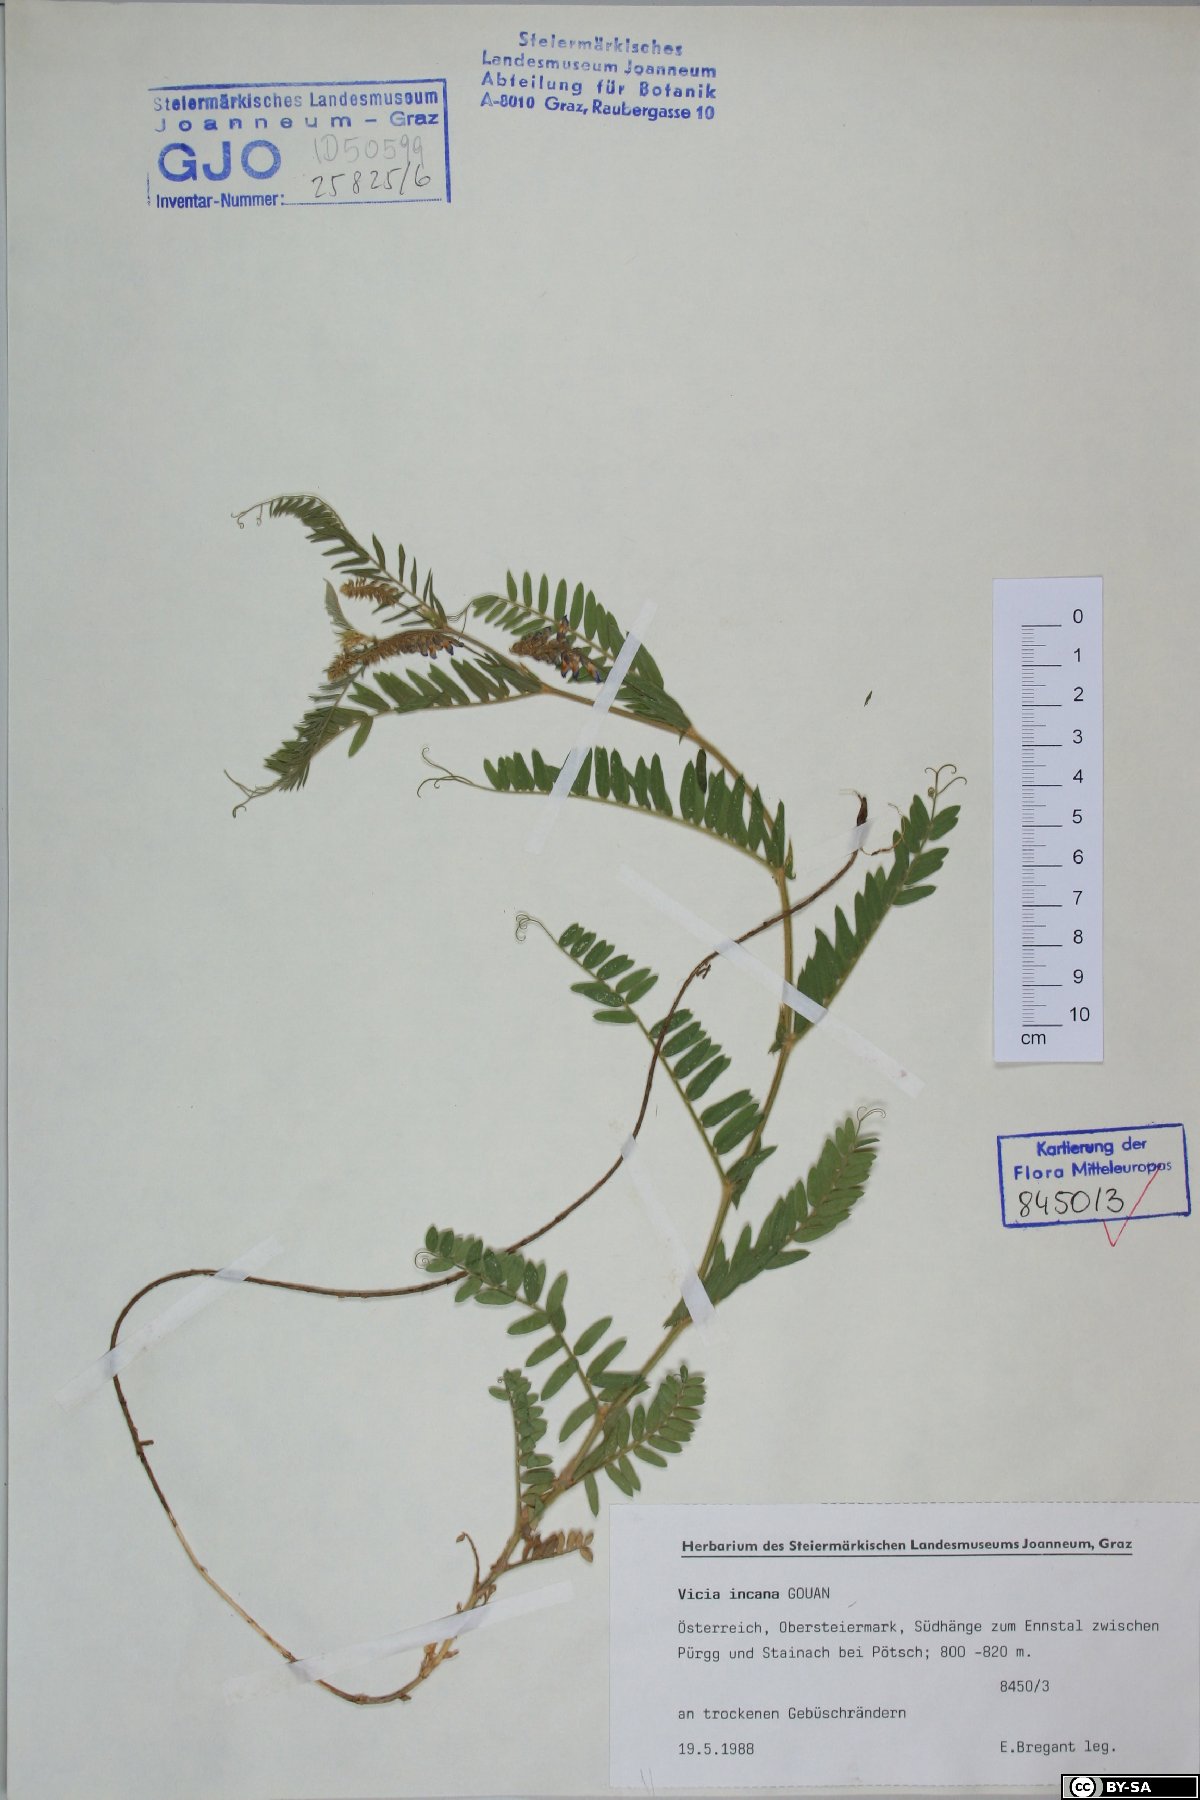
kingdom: Plantae
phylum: Tracheophyta
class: Magnoliopsida
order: Fabales
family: Fabaceae
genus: Vicia
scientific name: Vicia incana
